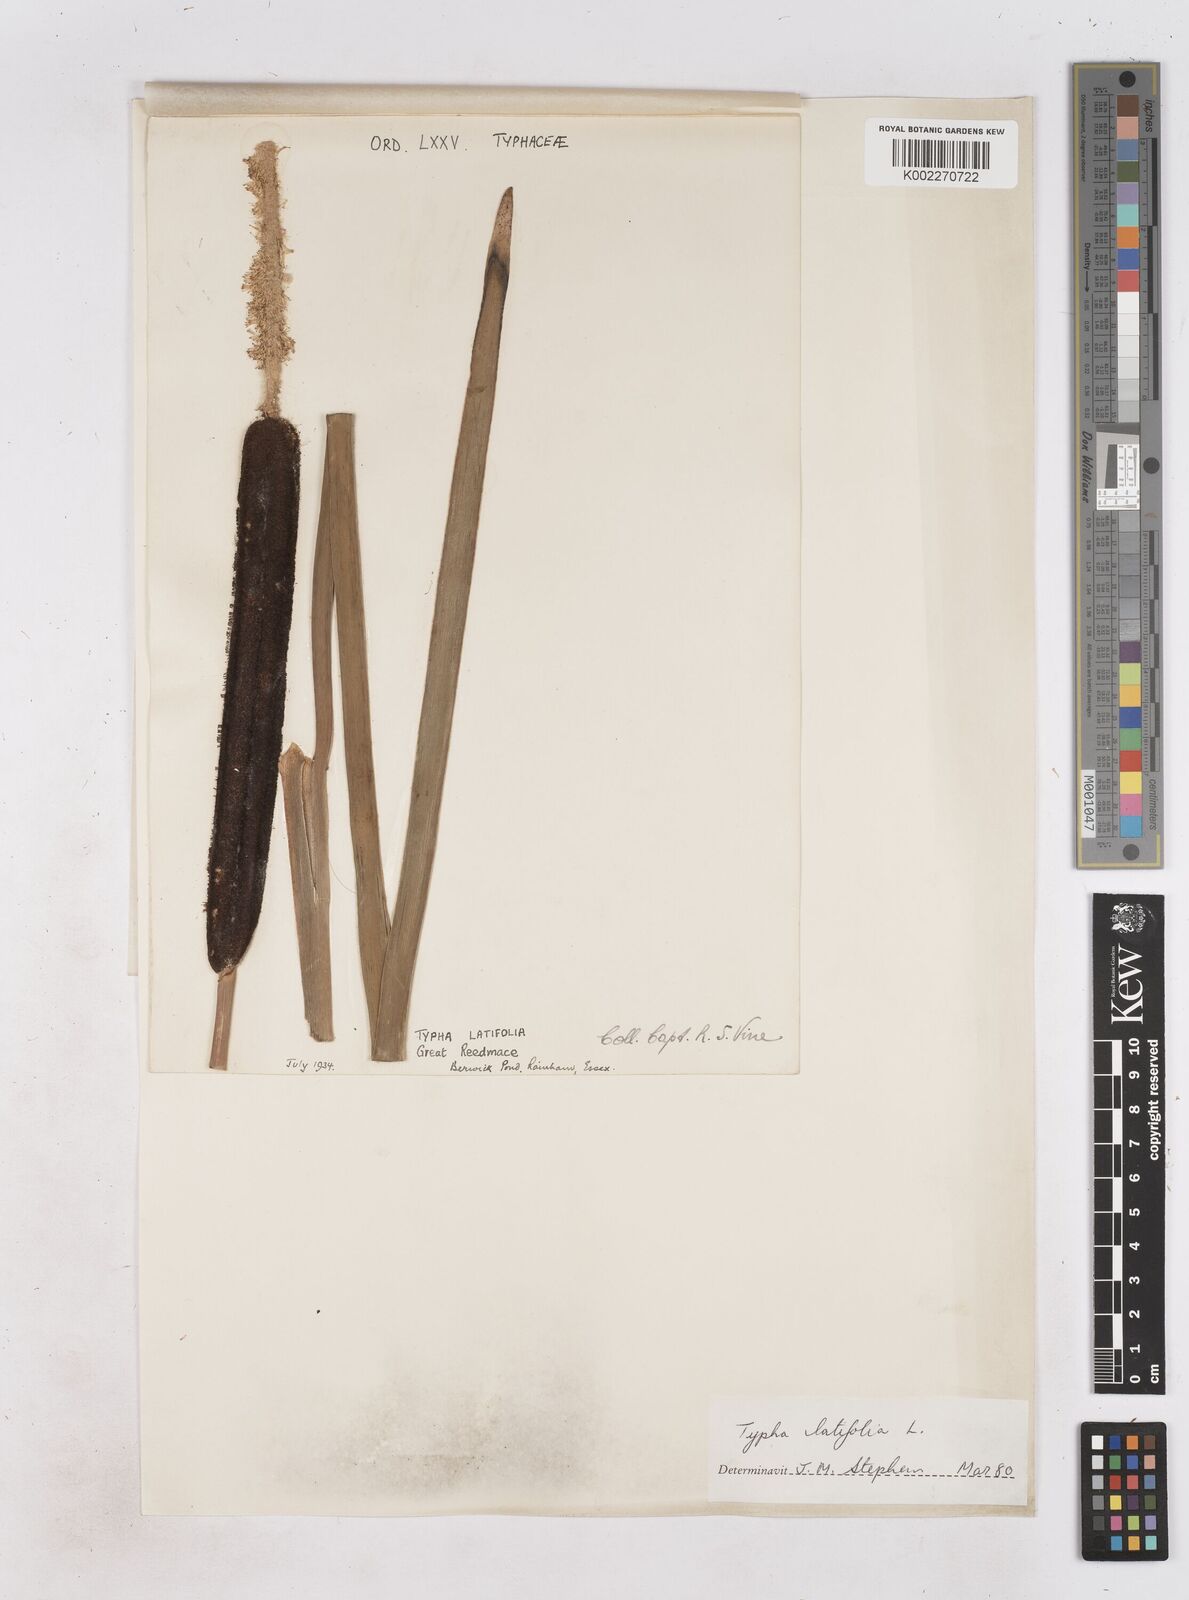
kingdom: Plantae
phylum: Tracheophyta
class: Liliopsida
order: Poales
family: Typhaceae
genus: Typha
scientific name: Typha latifolia
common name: Broadleaf cattail
